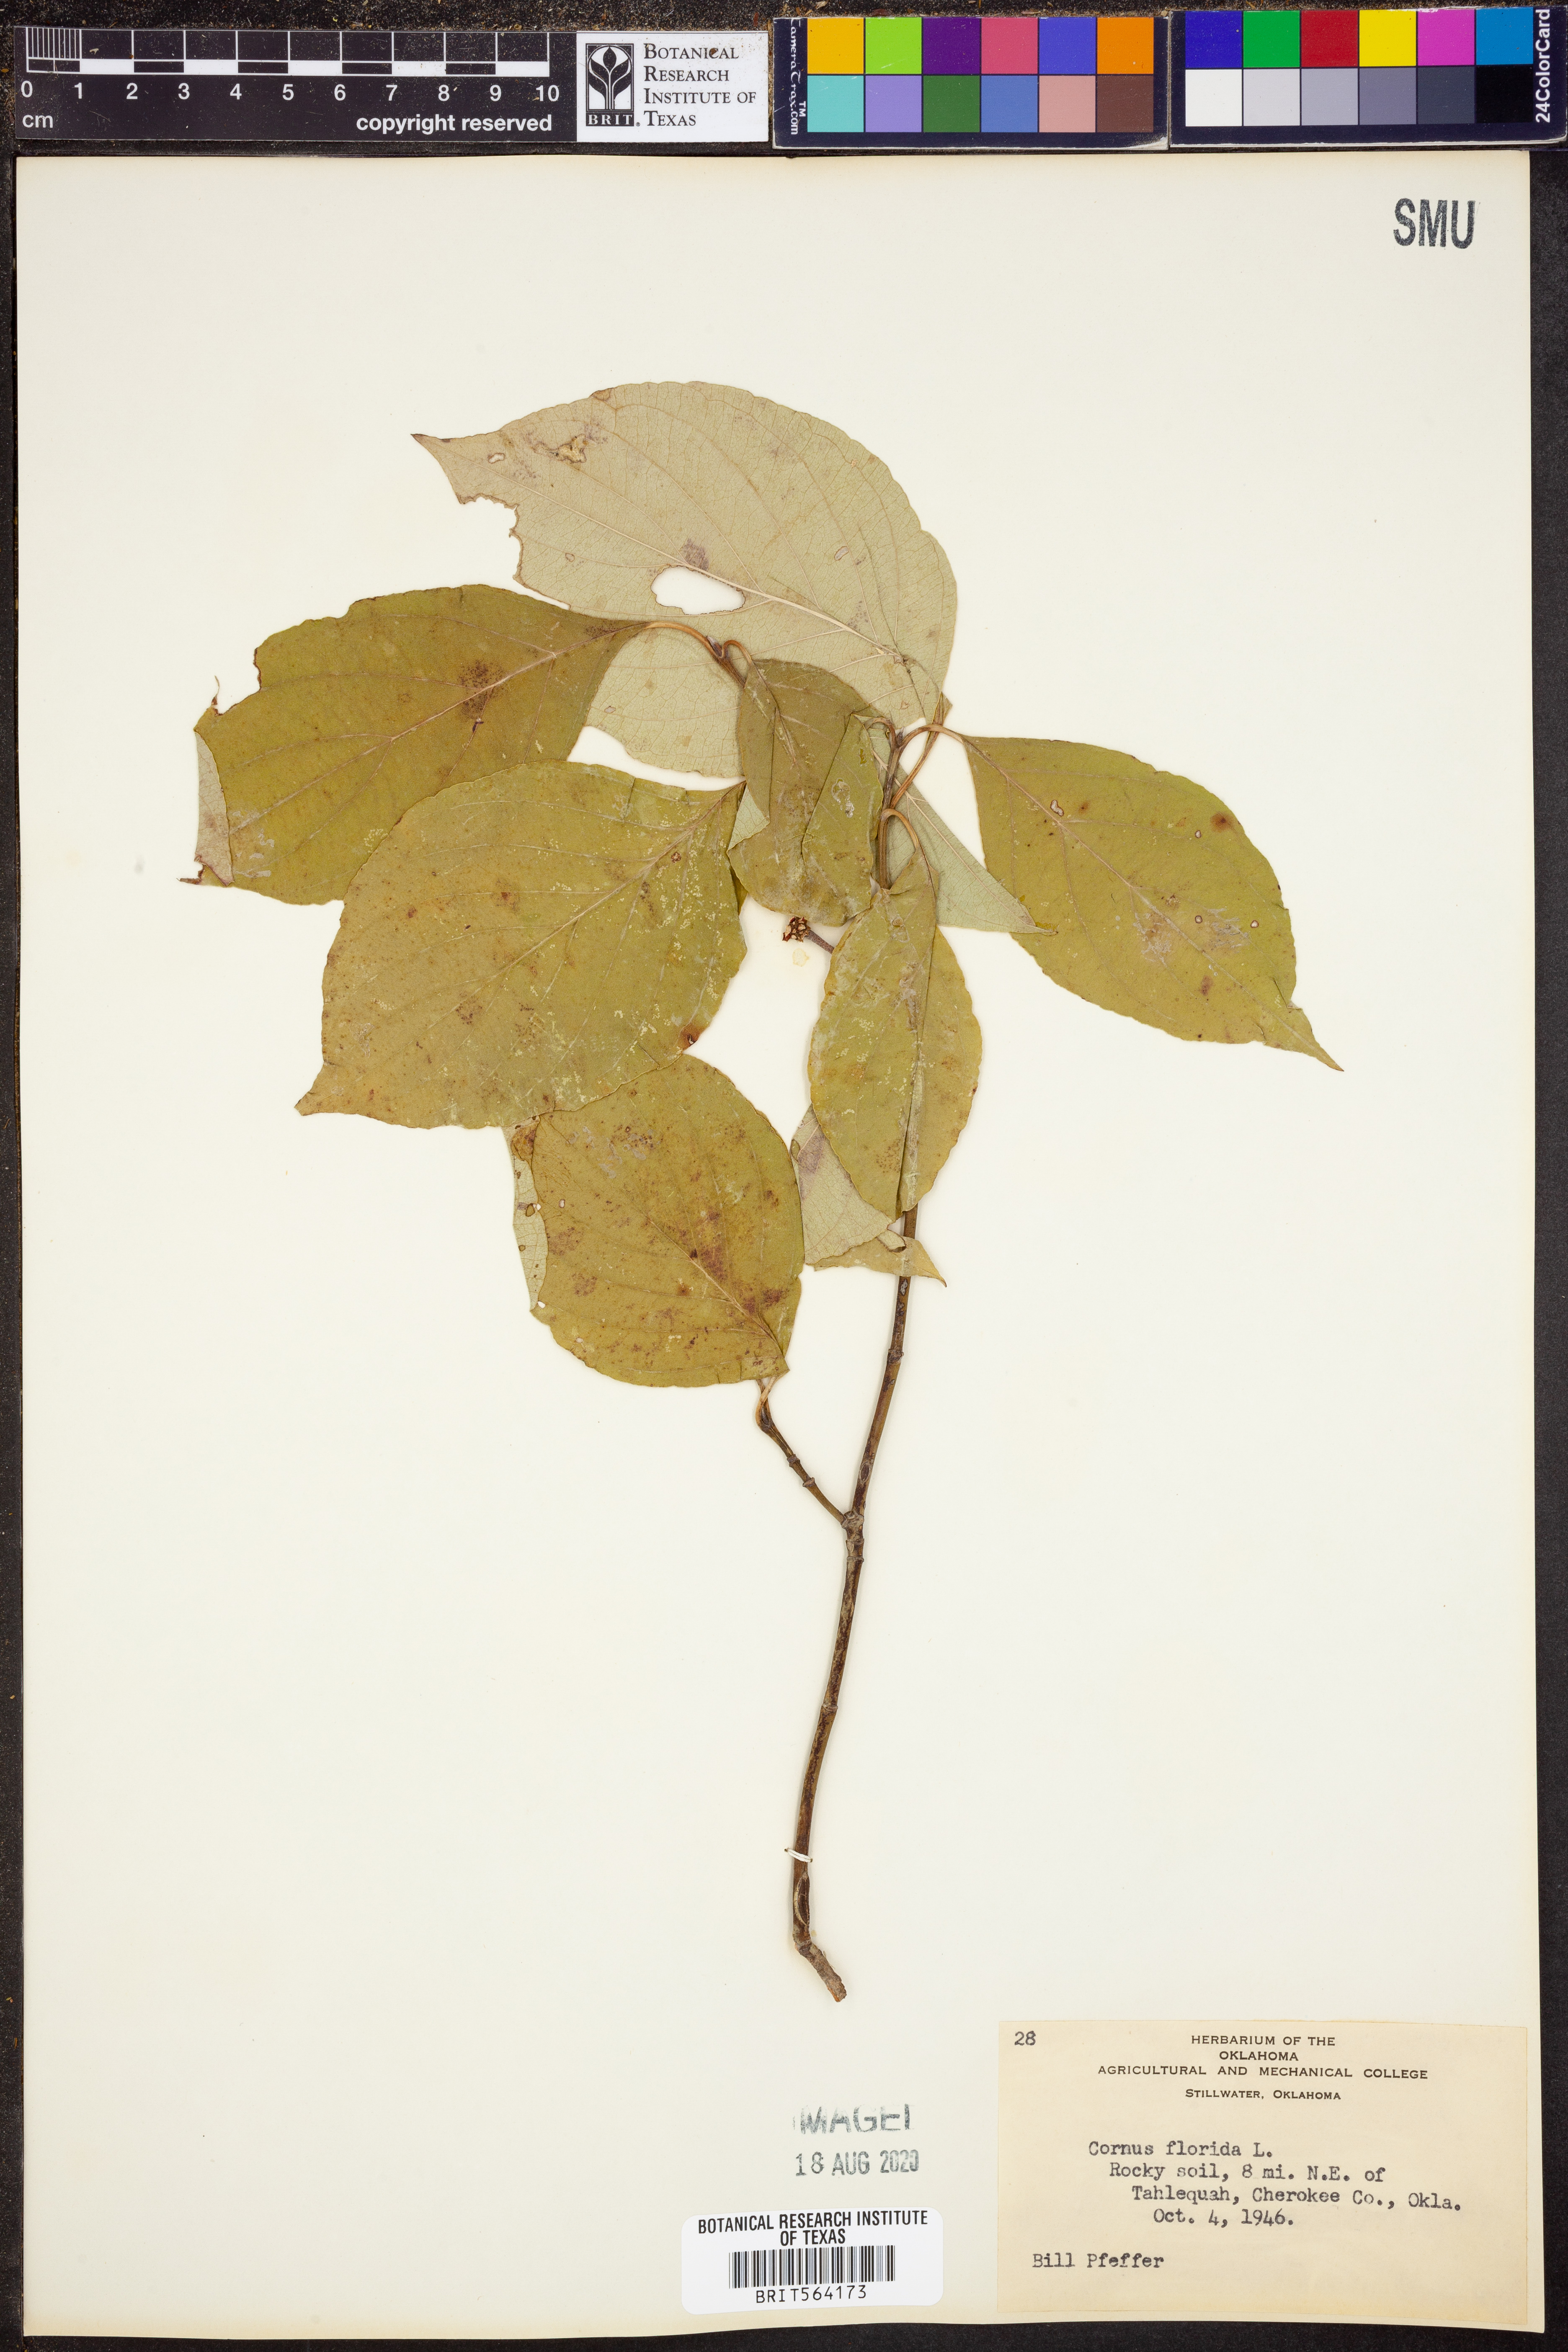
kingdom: Plantae
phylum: Tracheophyta
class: Magnoliopsida
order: Cornales
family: Cornaceae
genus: Cornus
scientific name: Cornus florida
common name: Flowering dogwood
